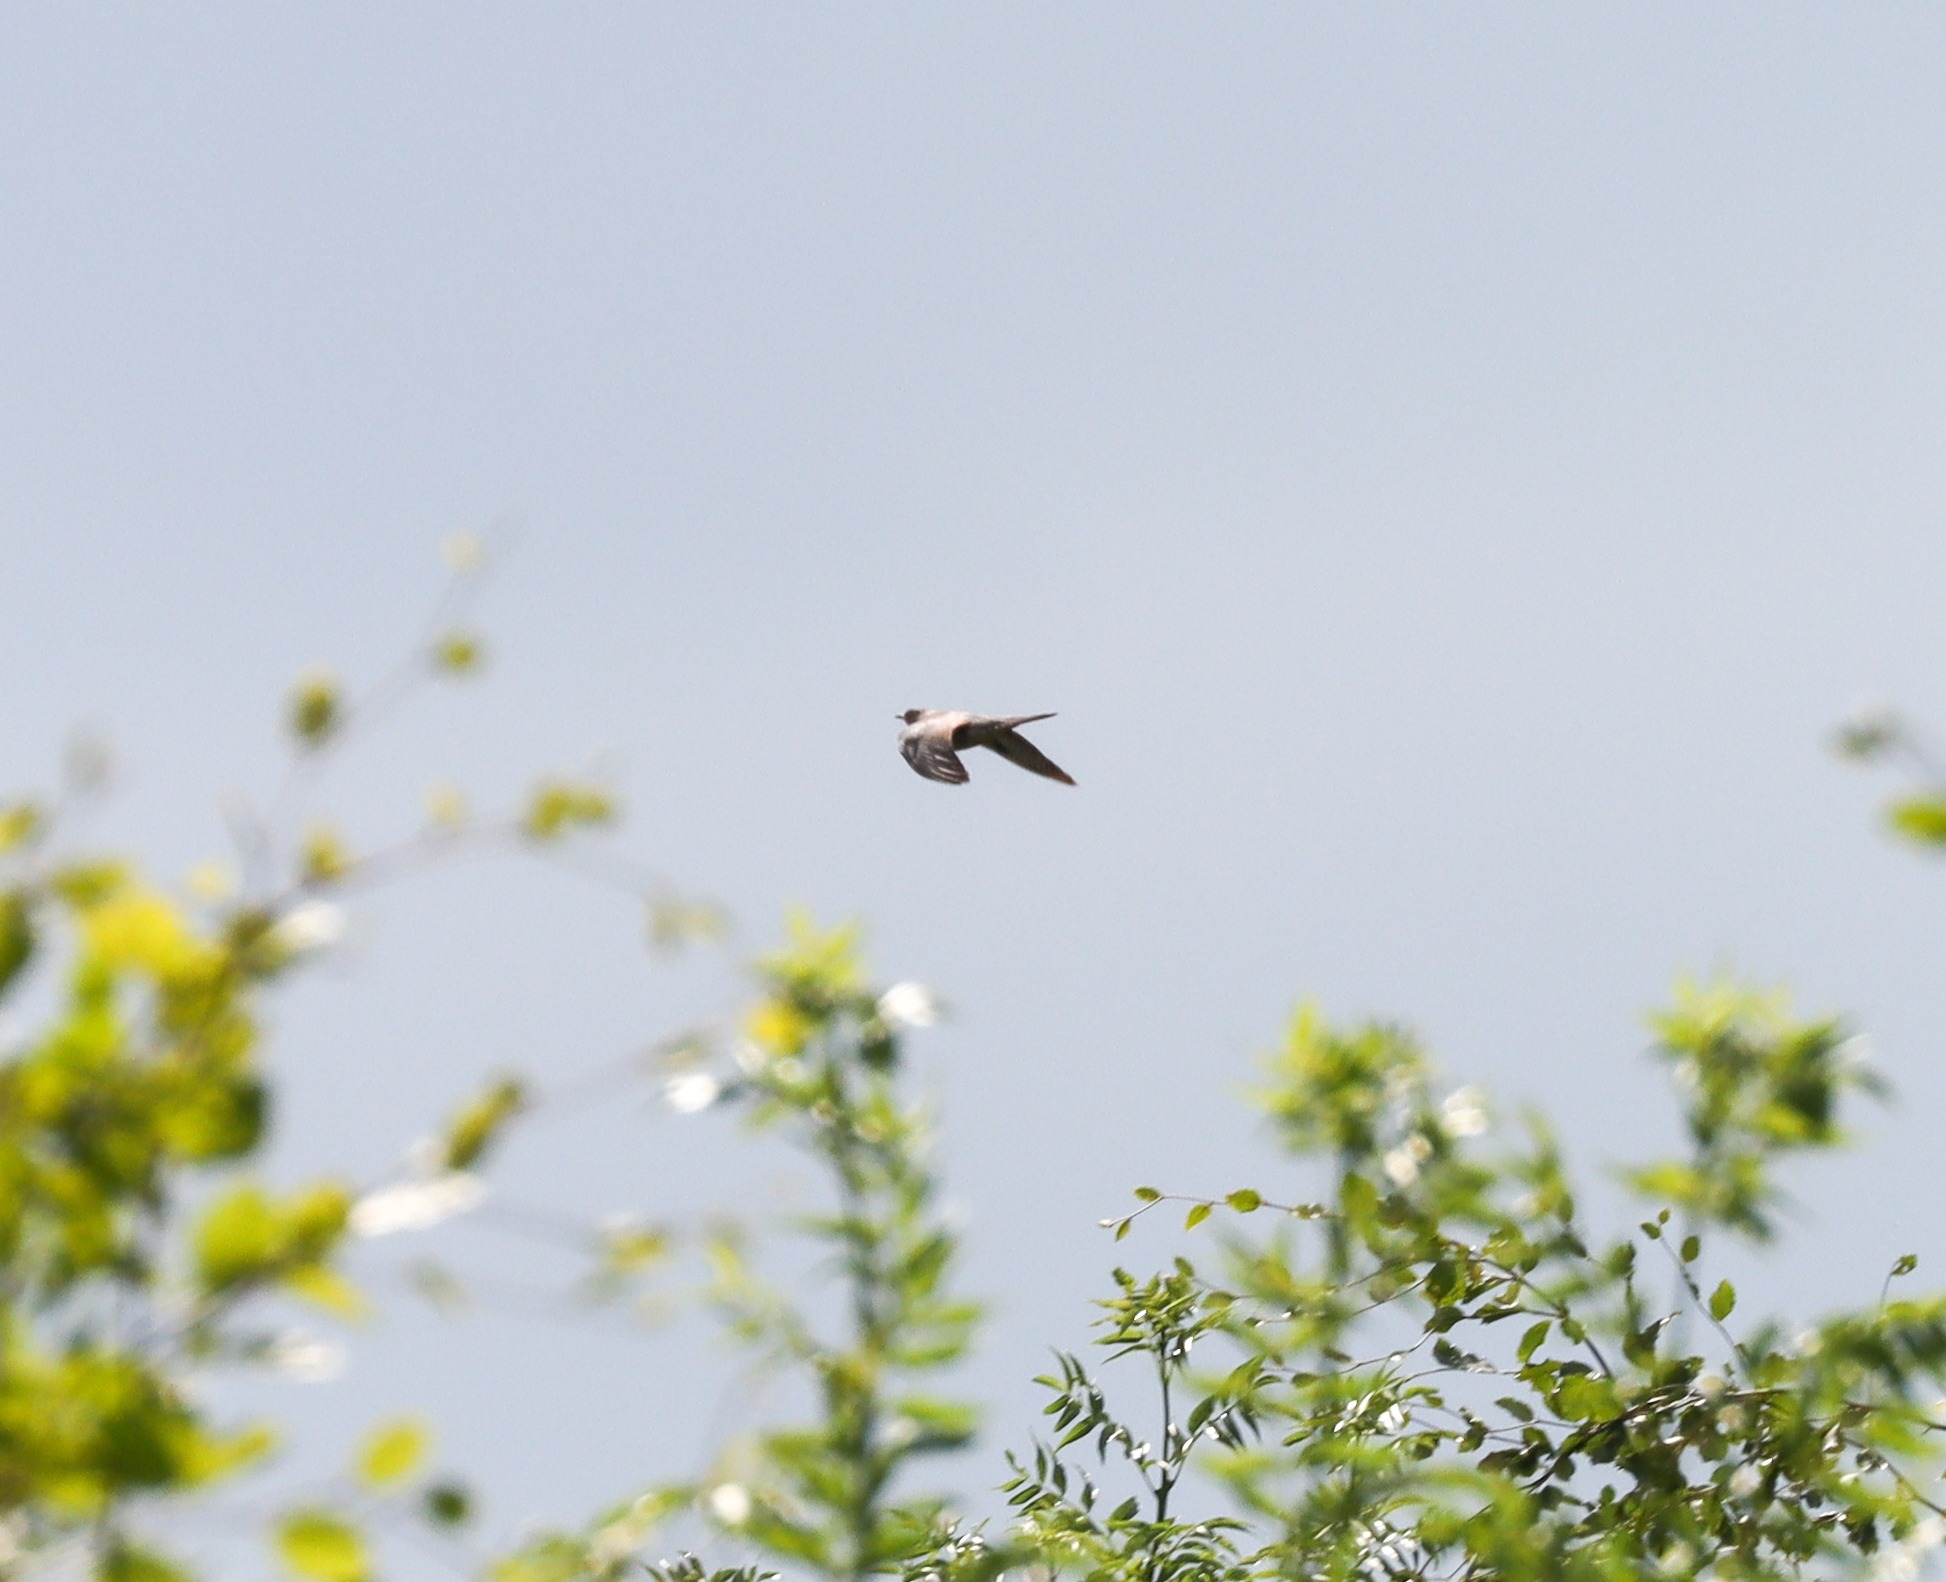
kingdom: Animalia
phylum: Chordata
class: Aves
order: Cuculiformes
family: Cuculidae
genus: Cuculus
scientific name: Cuculus canorus
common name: Gøg
